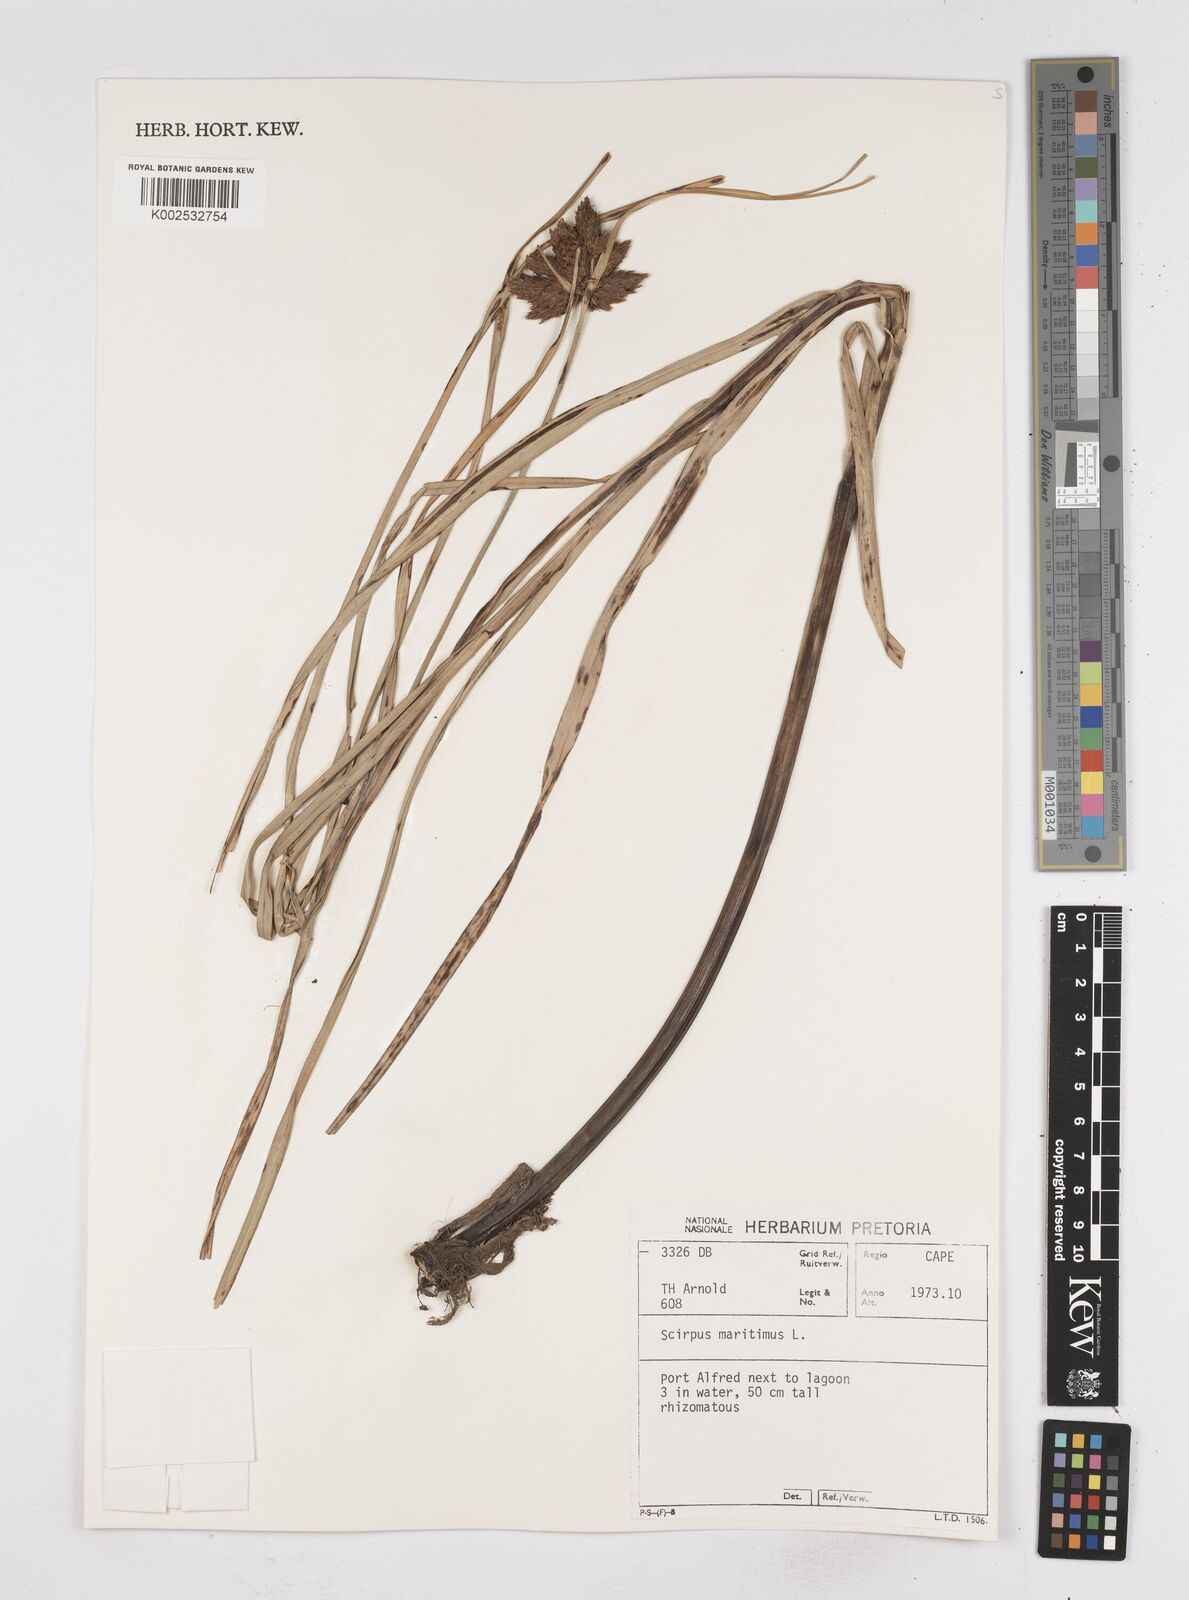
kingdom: Plantae
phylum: Tracheophyta
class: Liliopsida
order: Poales
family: Cyperaceae
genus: Bolboschoenus
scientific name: Bolboschoenus maritimus
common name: Sea club-rush
